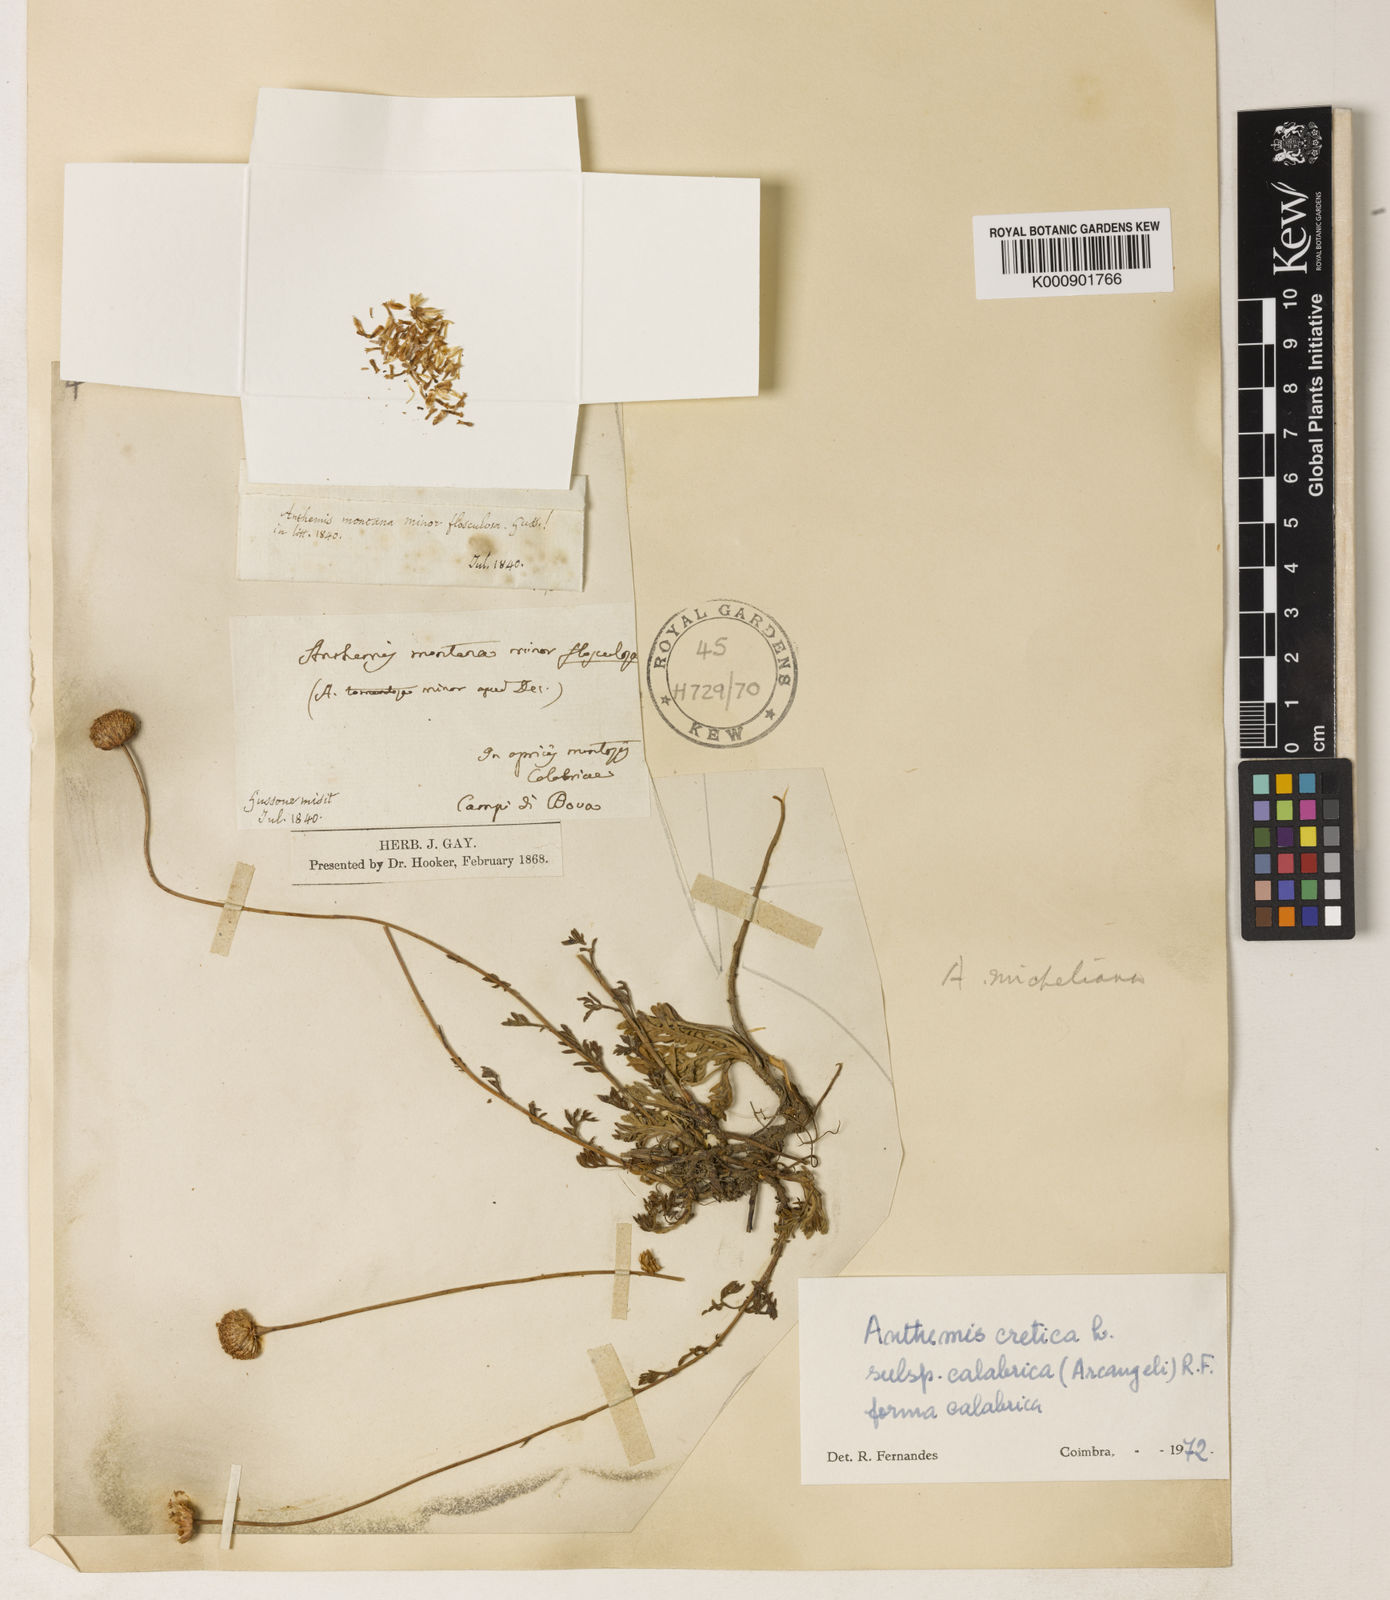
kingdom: Plantae
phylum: Tracheophyta
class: Magnoliopsida
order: Asterales
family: Asteraceae
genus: Anthemis
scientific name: Anthemis cretica
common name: Mountain dog-daisy
